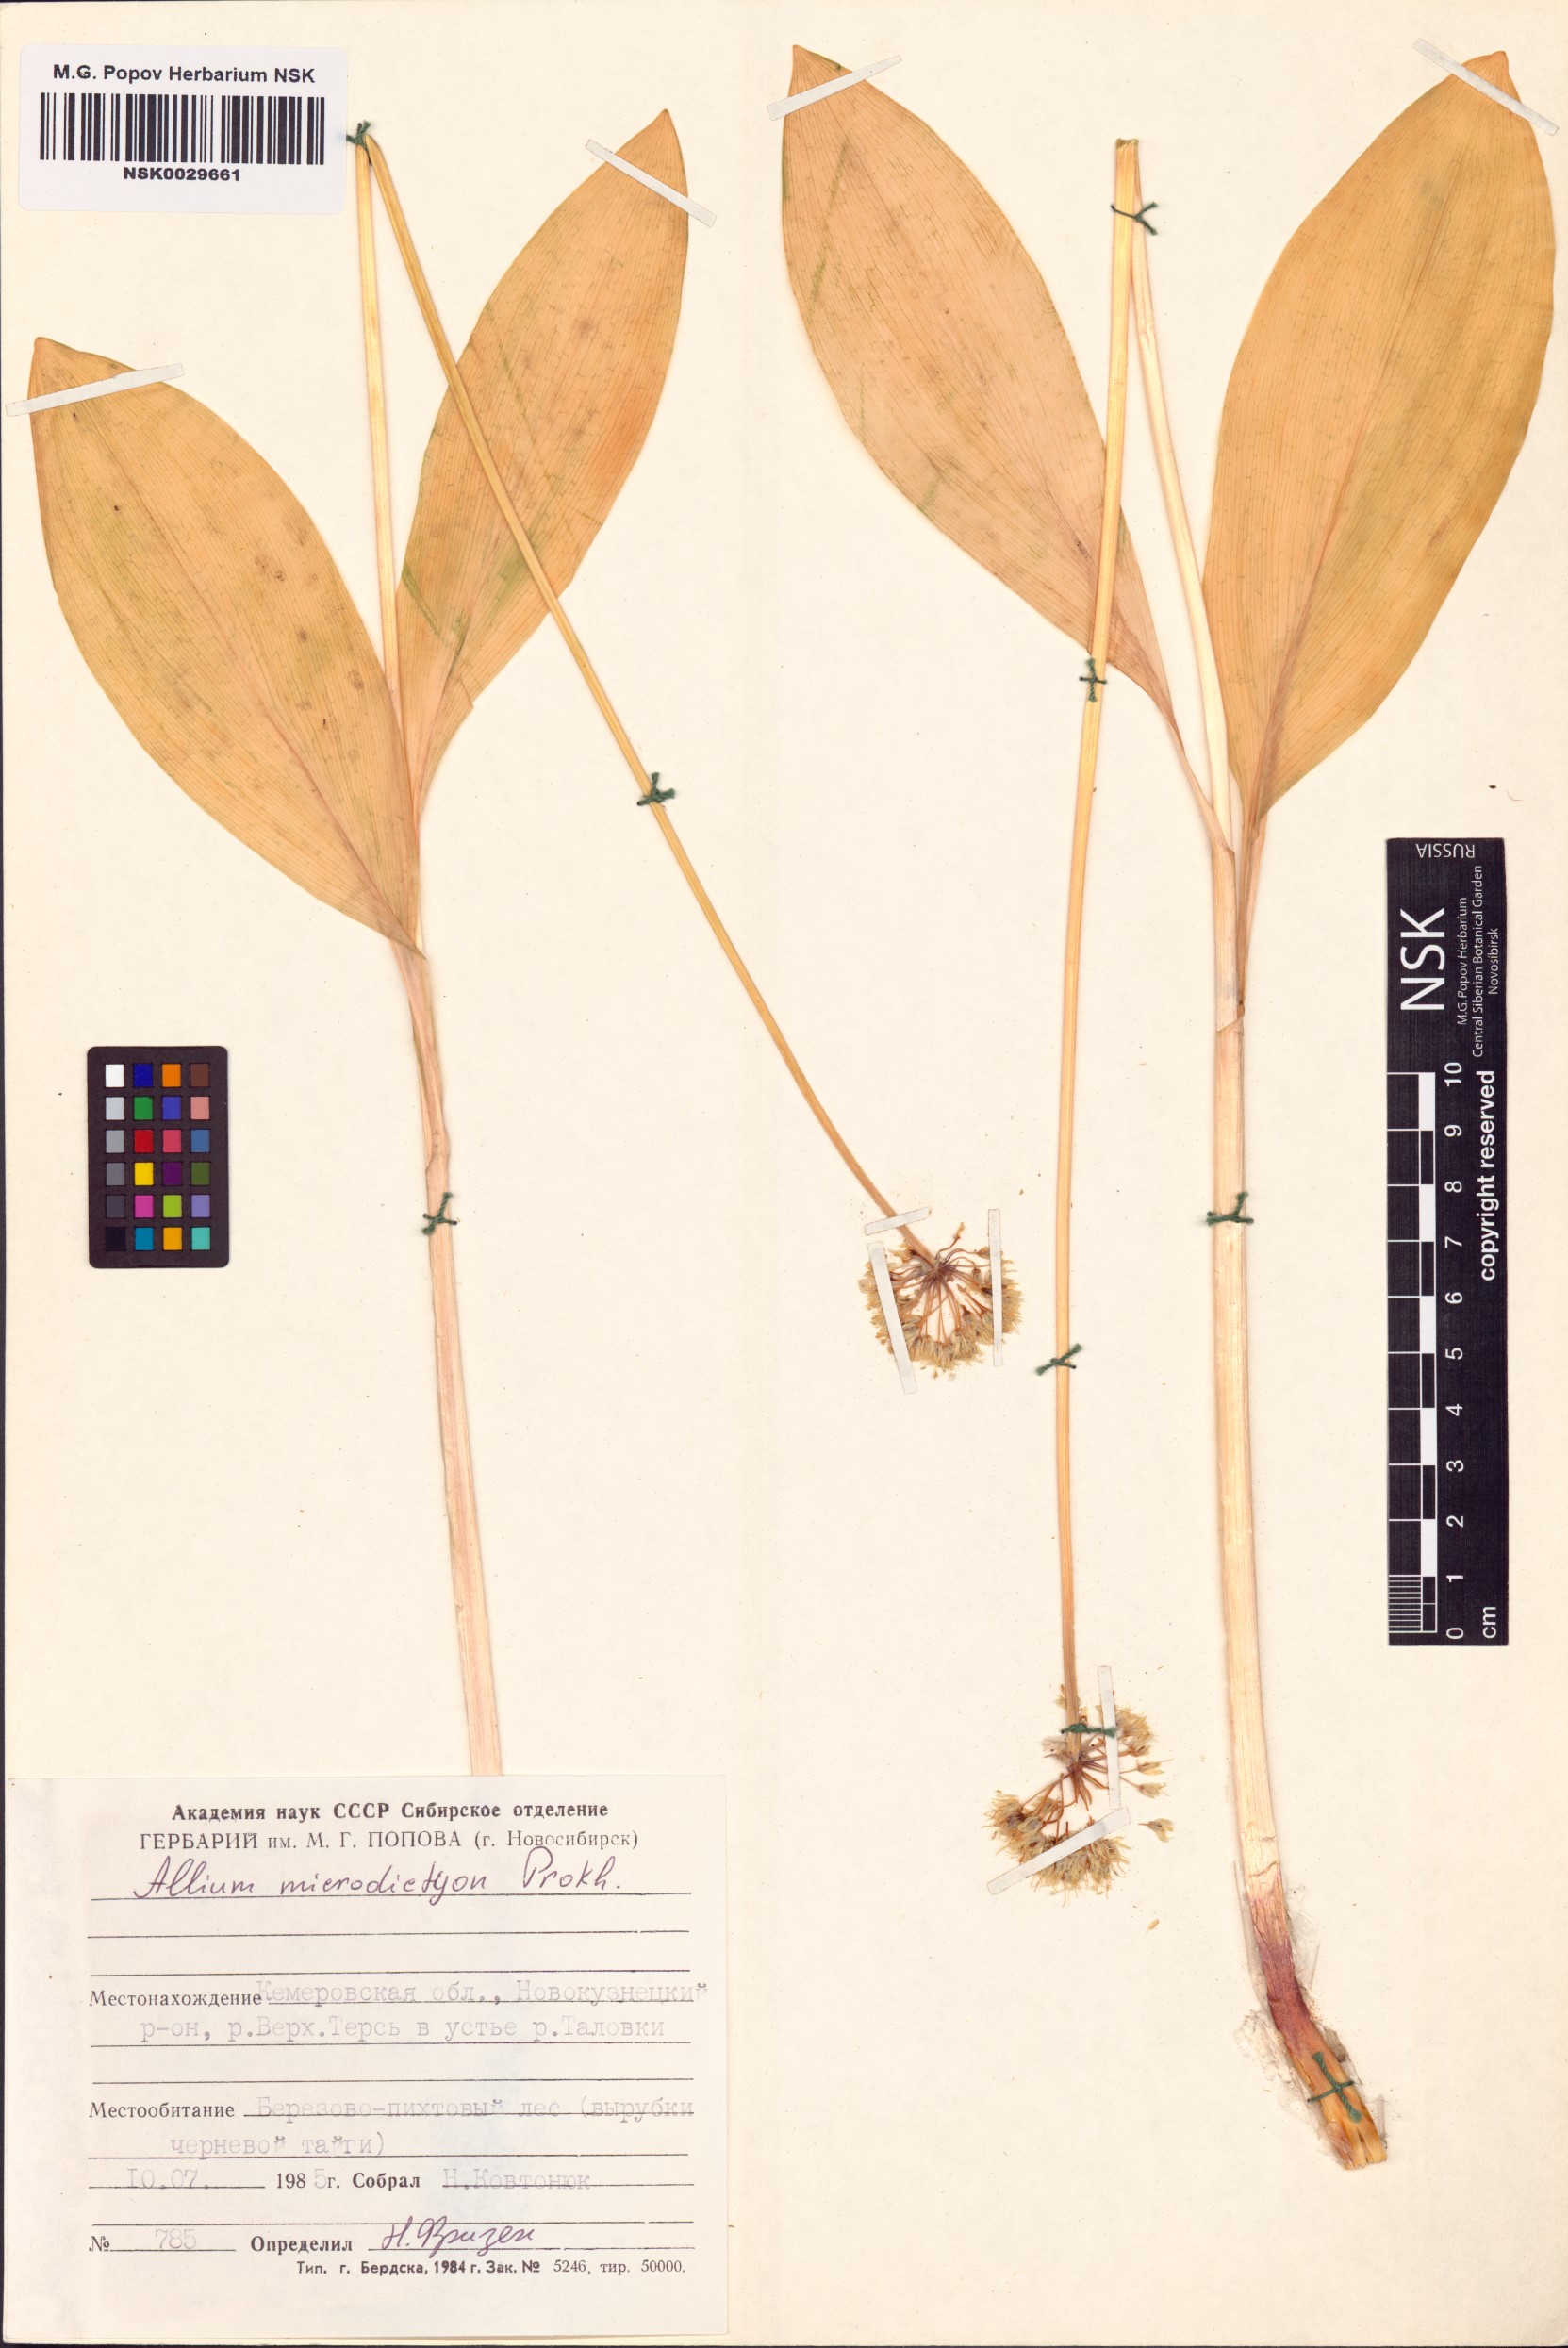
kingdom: Plantae
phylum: Tracheophyta
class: Liliopsida
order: Asparagales
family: Amaryllidaceae
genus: Allium
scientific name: Allium microdictyon
